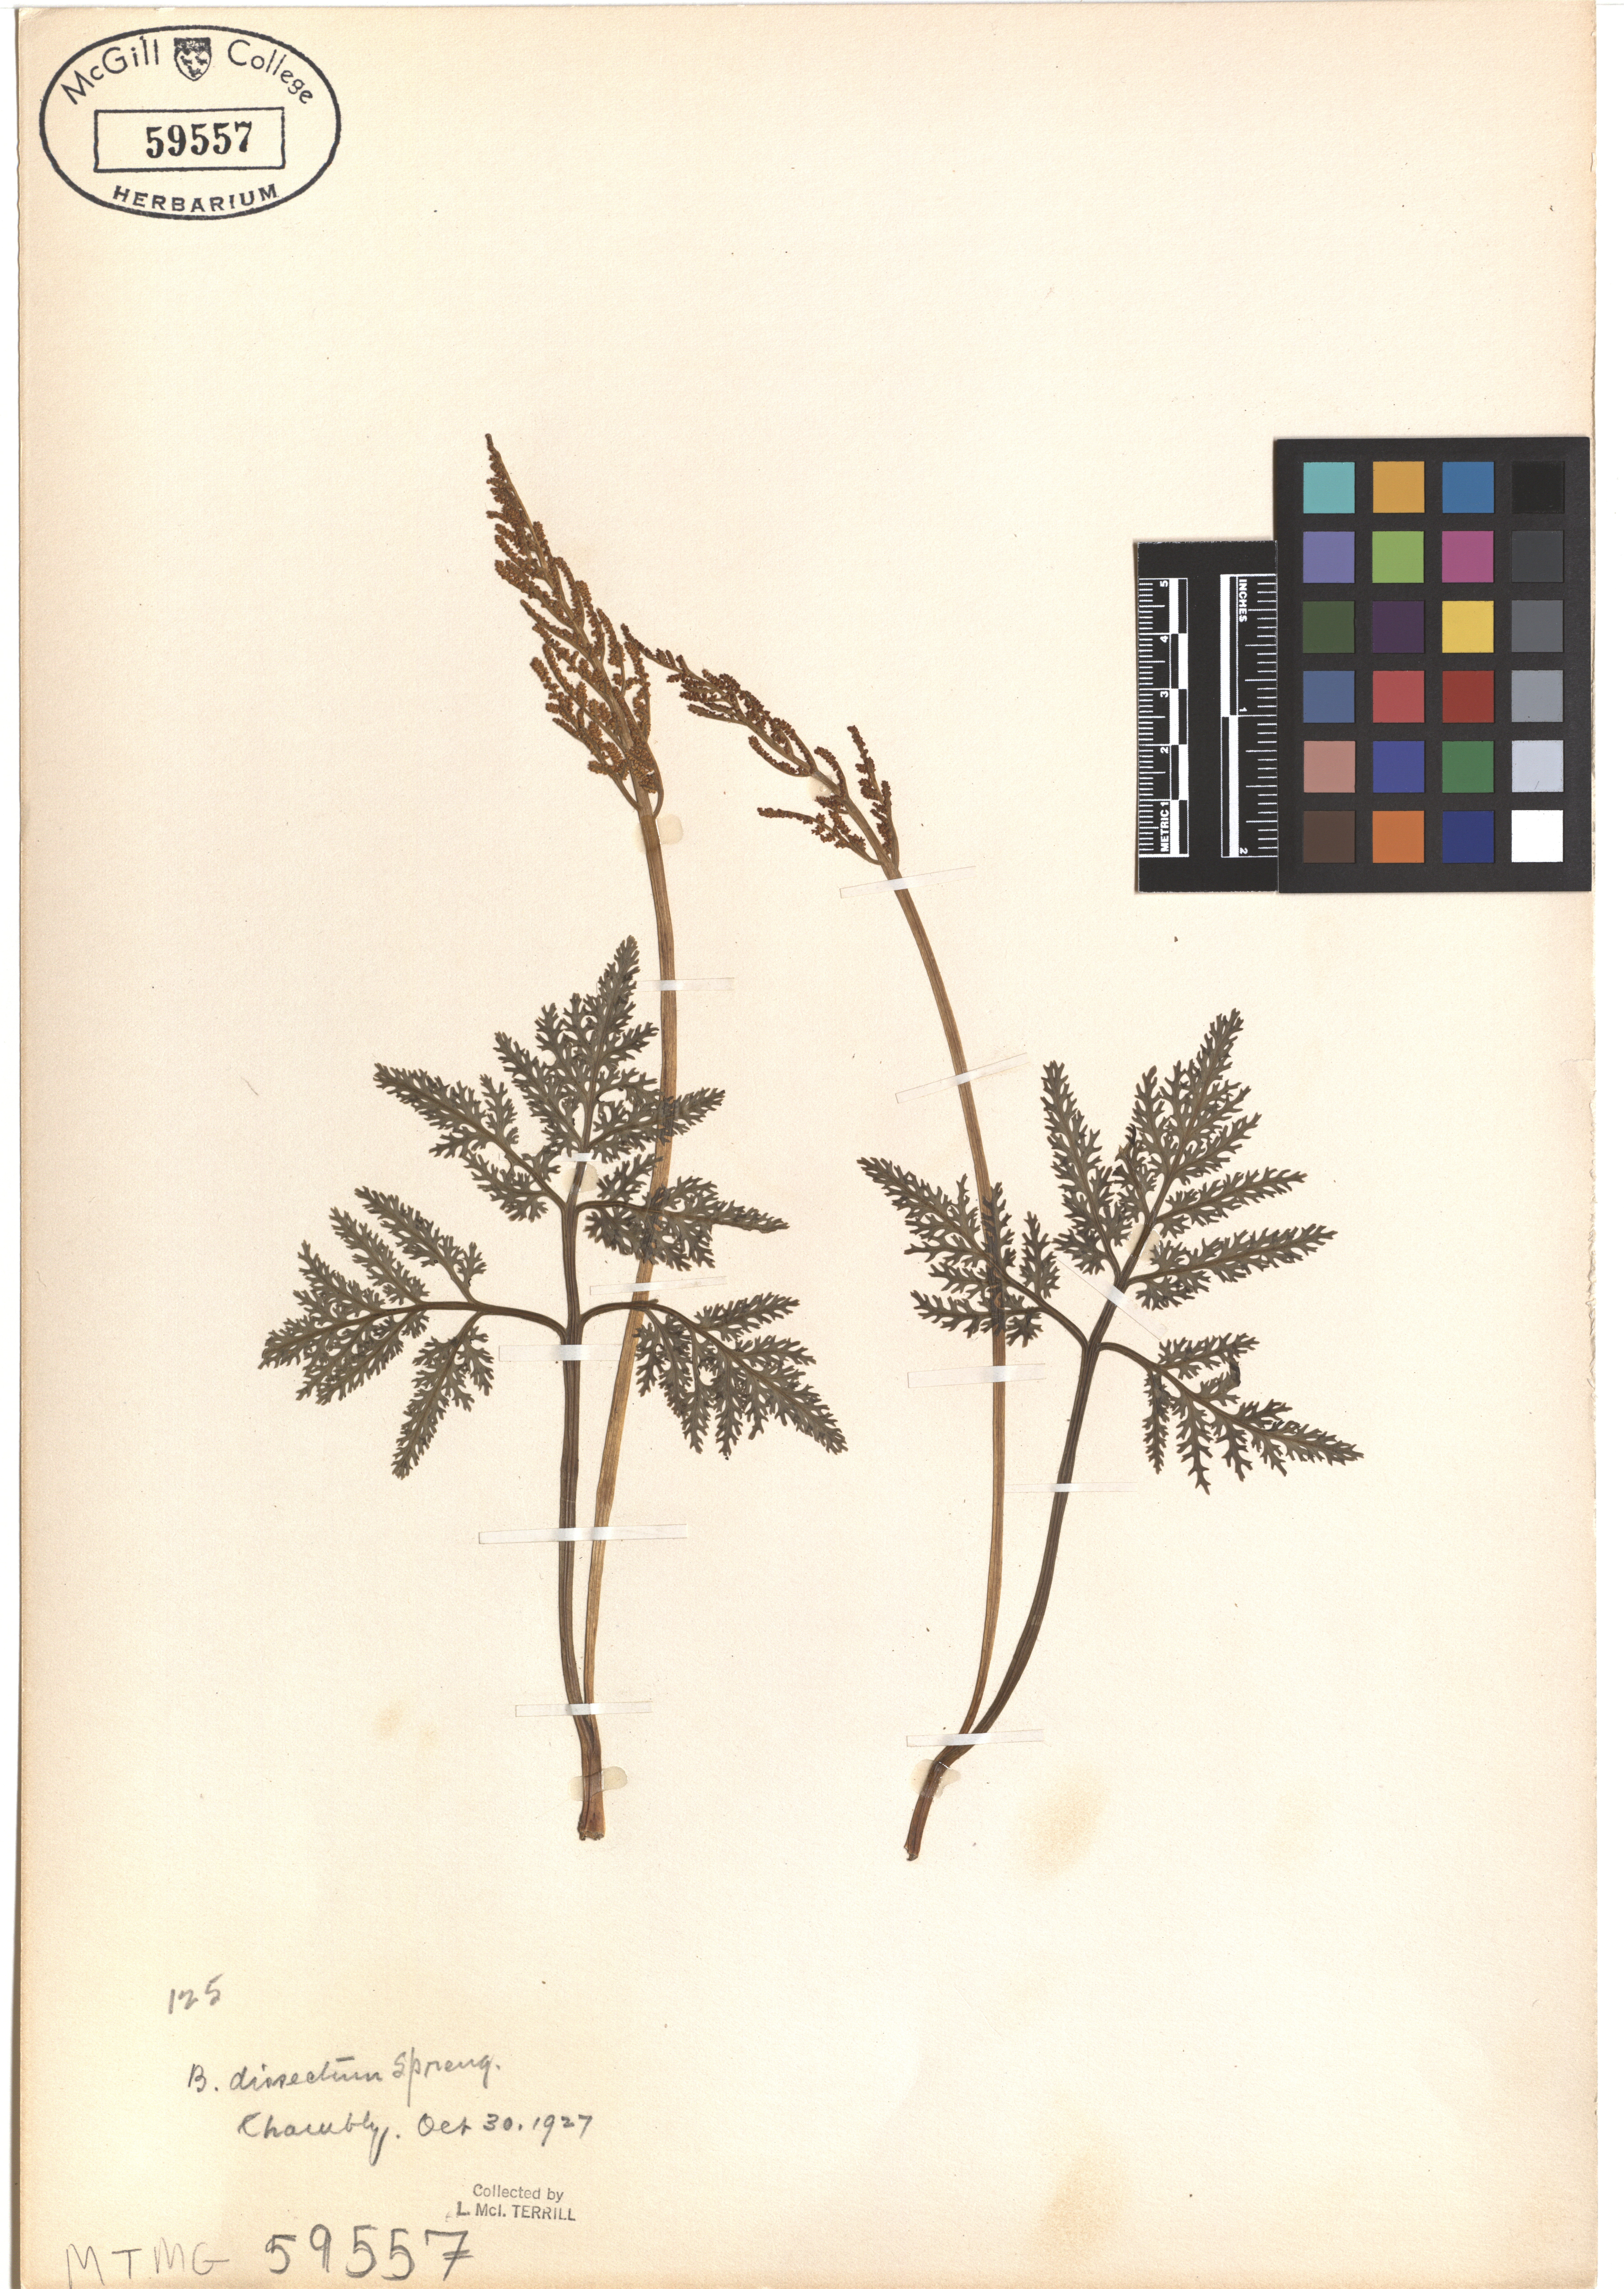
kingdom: Plantae
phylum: Tracheophyta
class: Polypodiopsida
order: Ophioglossales
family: Ophioglossaceae
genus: Sceptridium
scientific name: Sceptridium dissectum
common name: Cut-leaved grapefern
